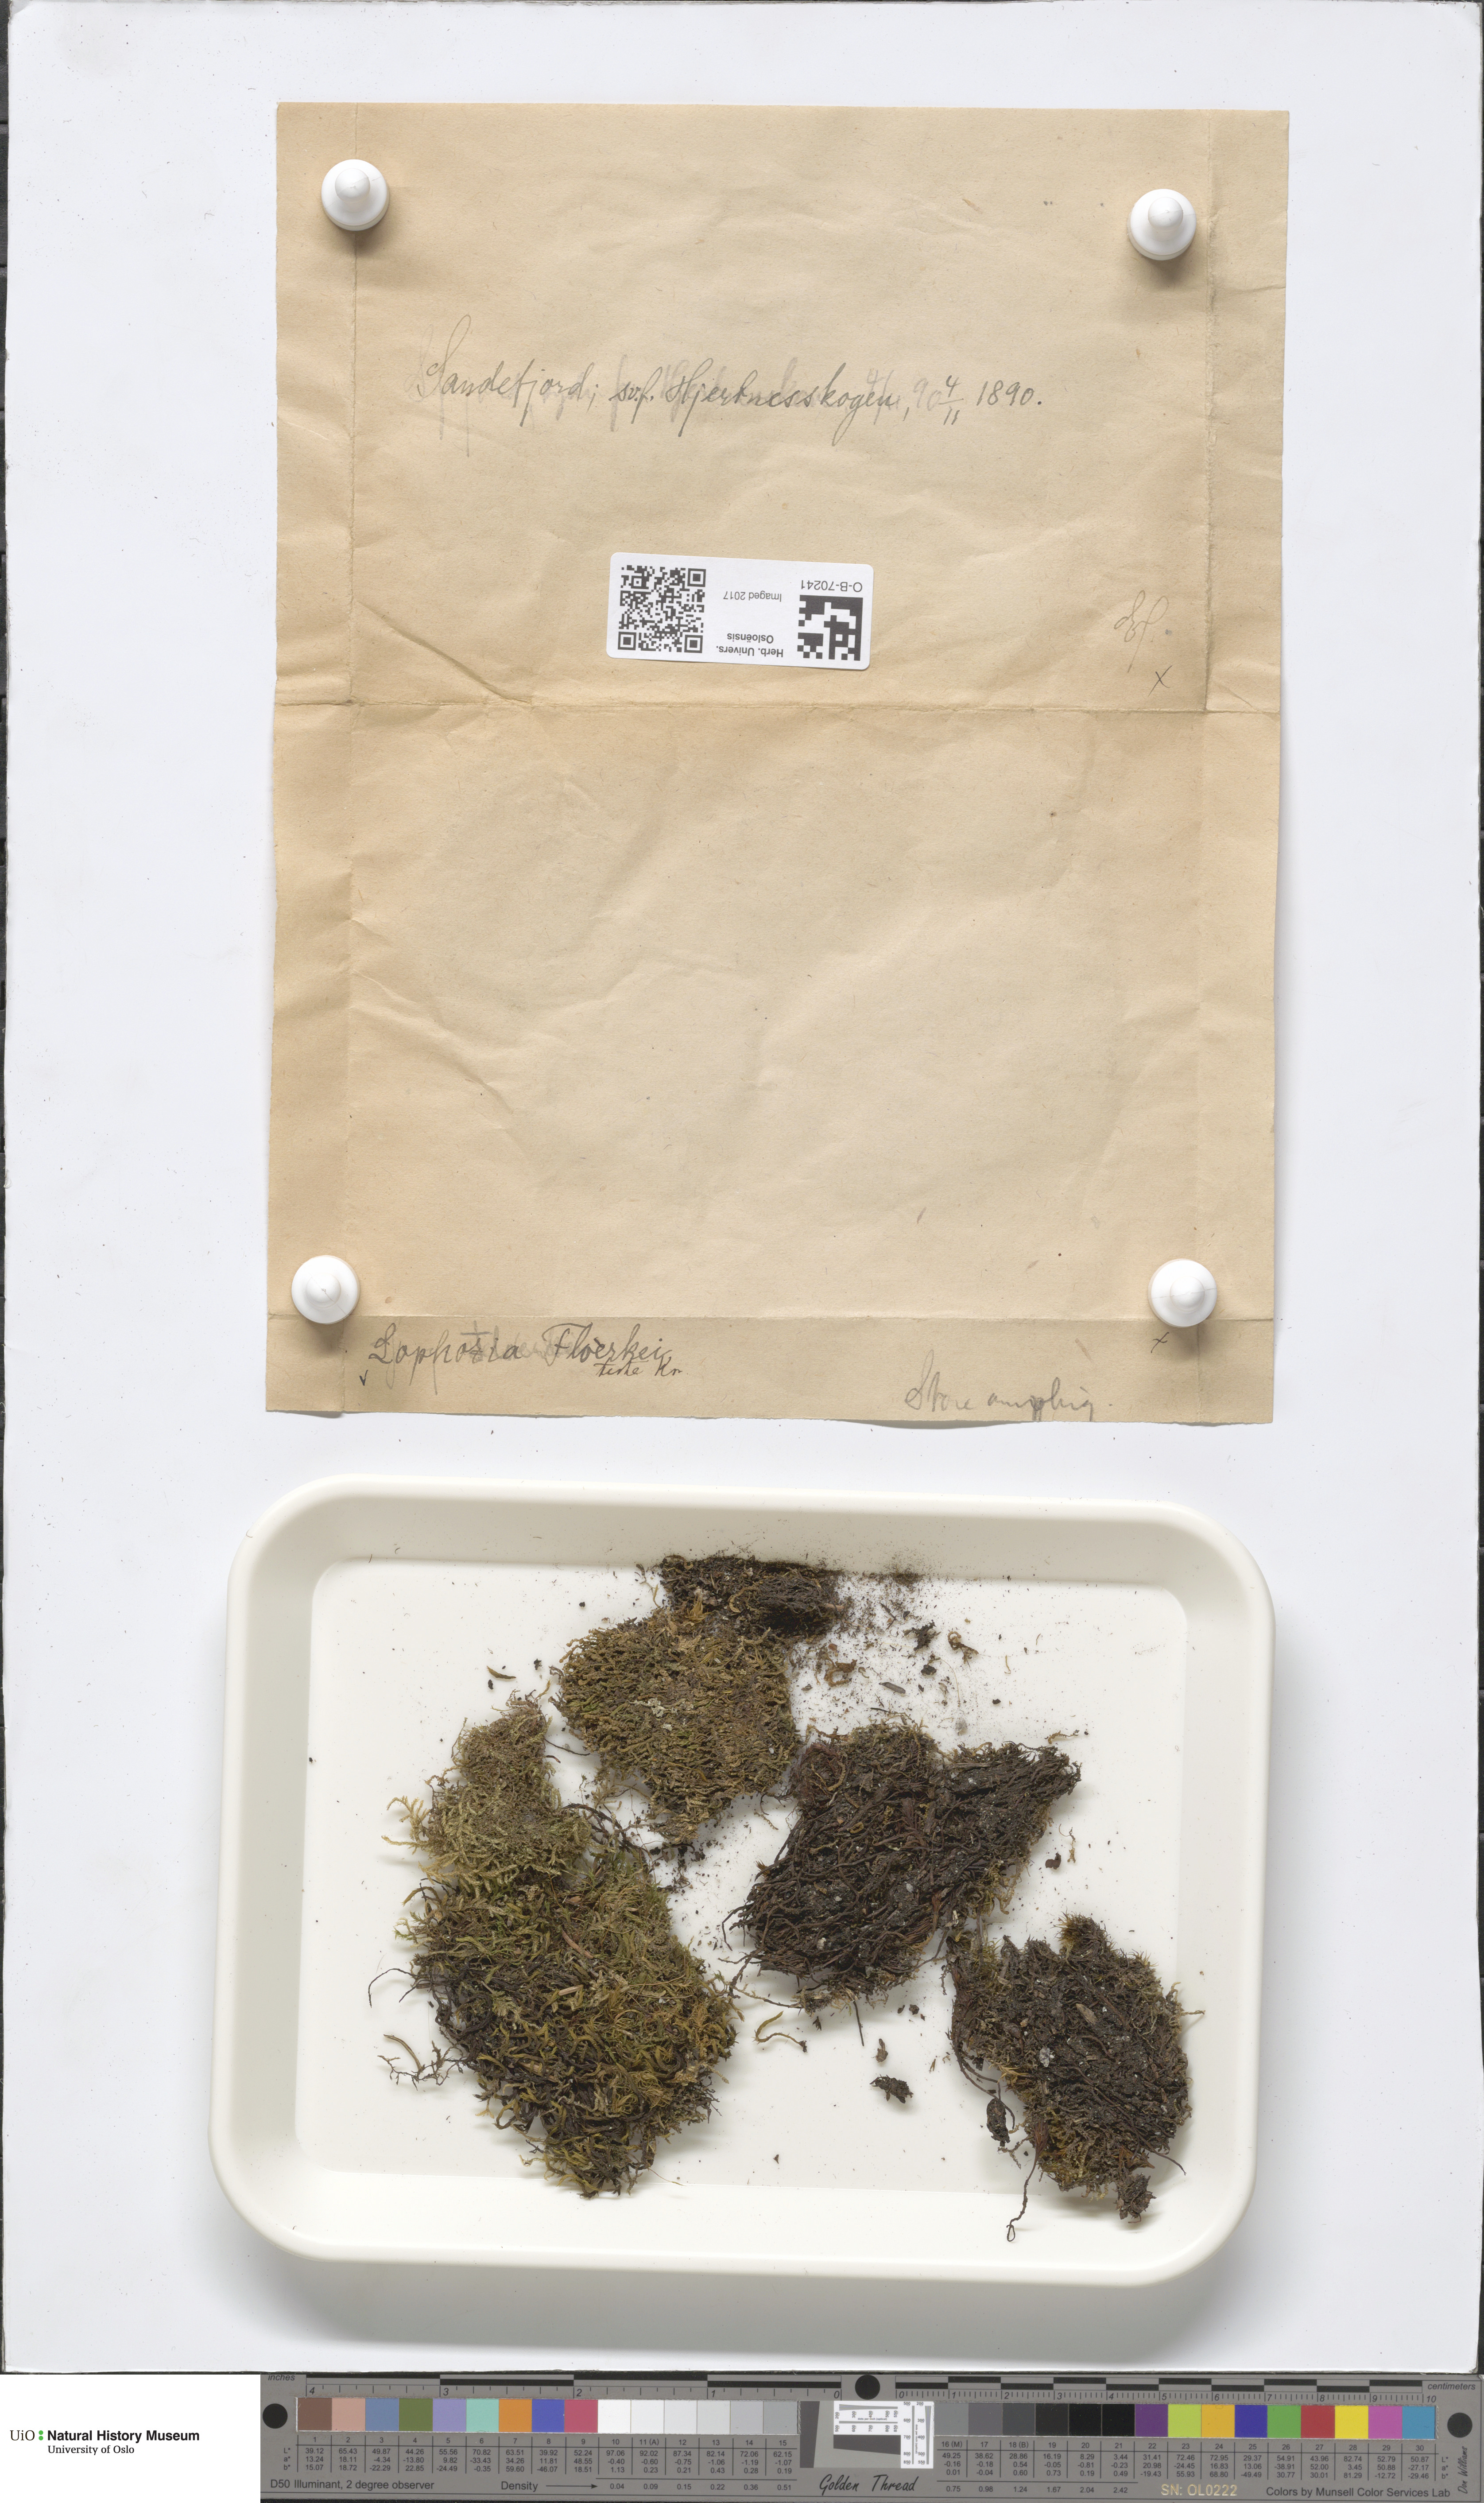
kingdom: Plantae
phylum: Marchantiophyta
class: Jungermanniopsida
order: Jungermanniales
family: Anastrophyllaceae
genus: Neoorthocaulis
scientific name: Neoorthocaulis floerkei
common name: Floerke's barbilophozia
